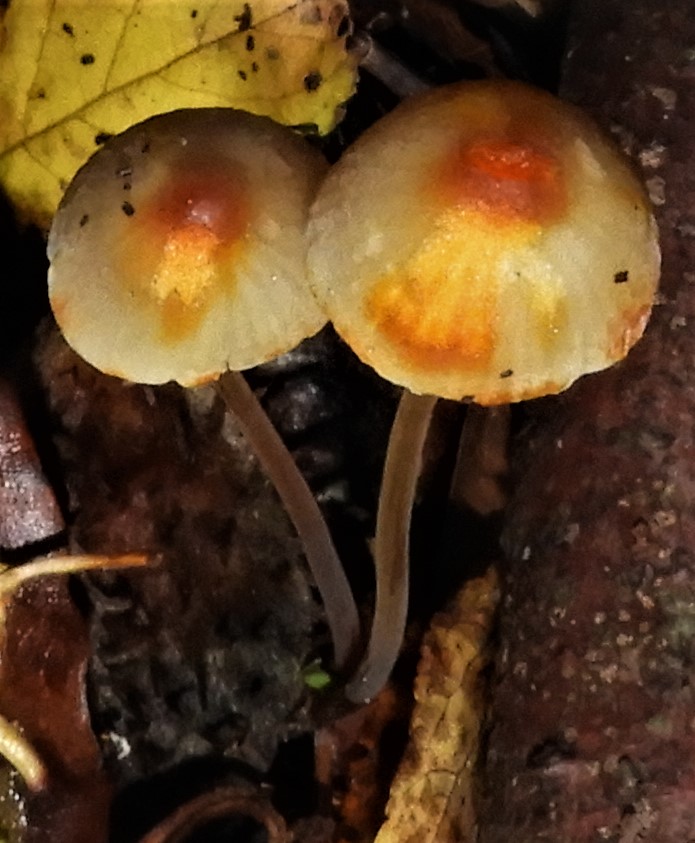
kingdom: Fungi
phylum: Basidiomycota
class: Agaricomycetes
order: Agaricales
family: Mycenaceae
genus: Mycena
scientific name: Mycena crocata
